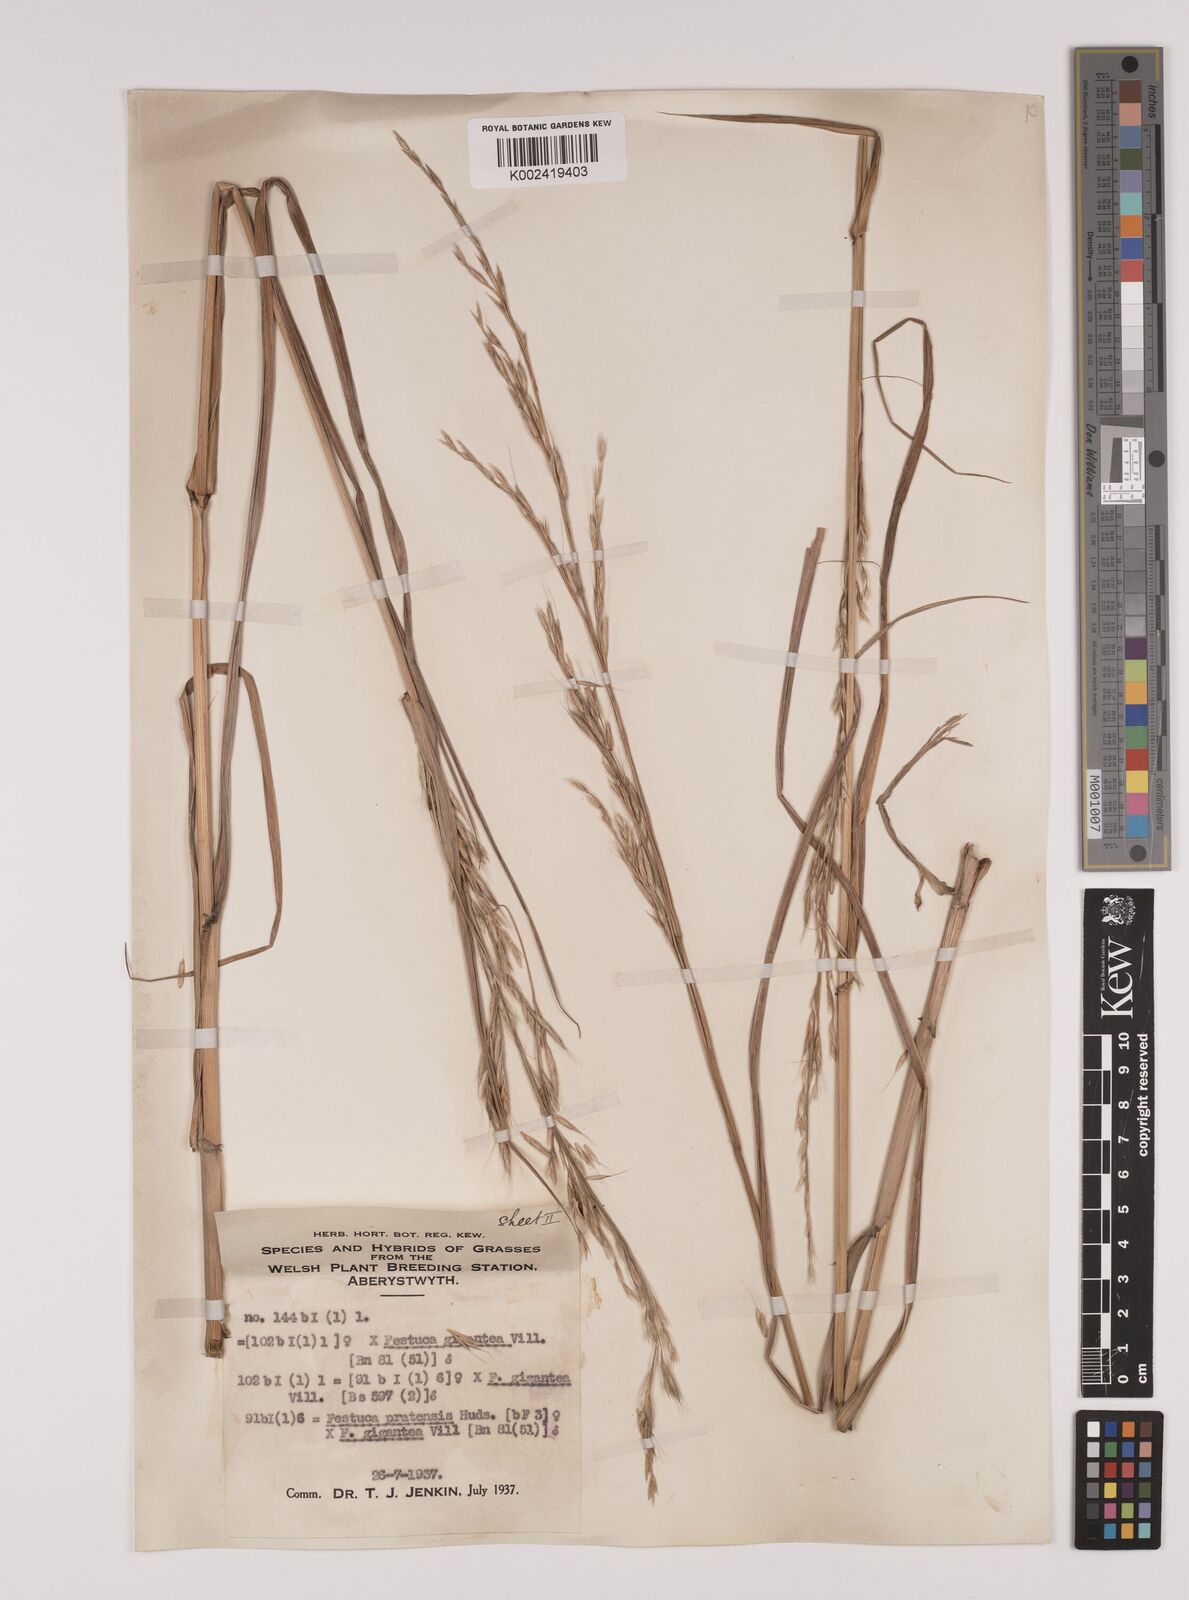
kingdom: Plantae
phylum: Tracheophyta
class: Liliopsida
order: Poales
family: Poaceae
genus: Lolium
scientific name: Lolium giganteum
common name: Giant fescue
